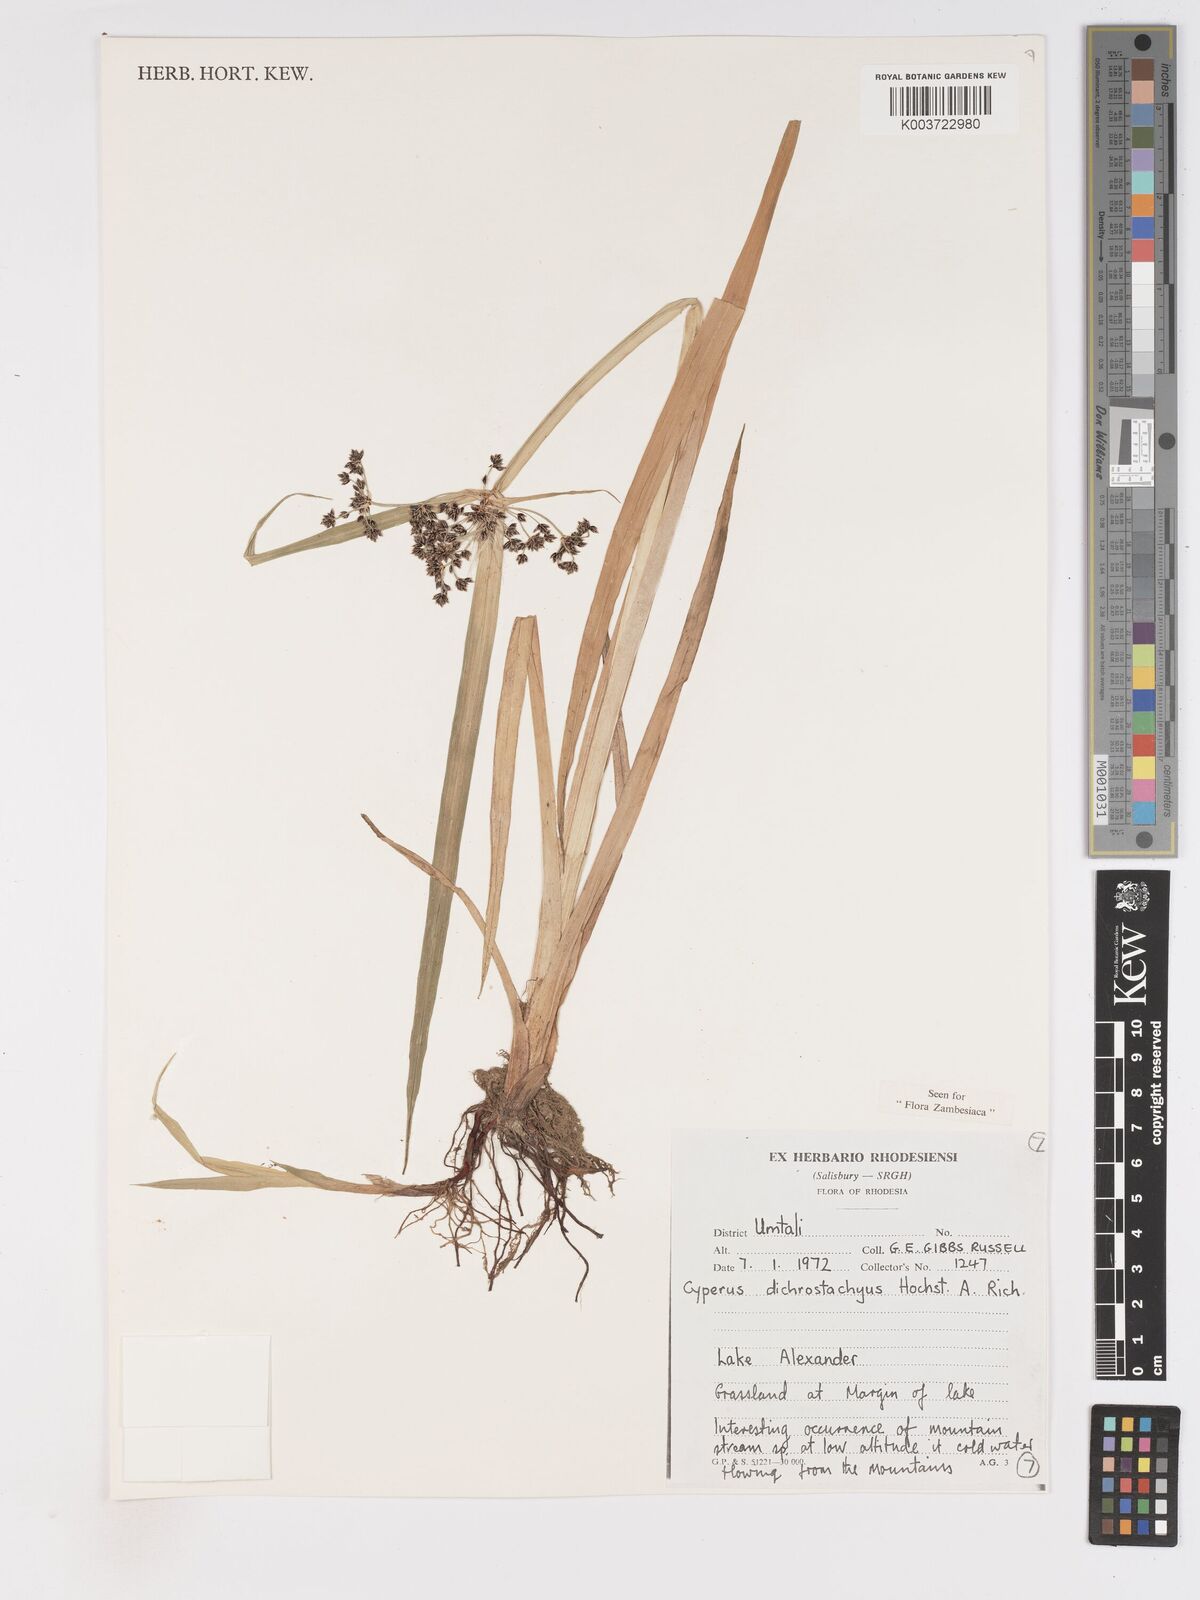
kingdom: Plantae
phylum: Tracheophyta
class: Liliopsida
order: Poales
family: Cyperaceae
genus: Cyperus
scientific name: Cyperus dichrostachyus
